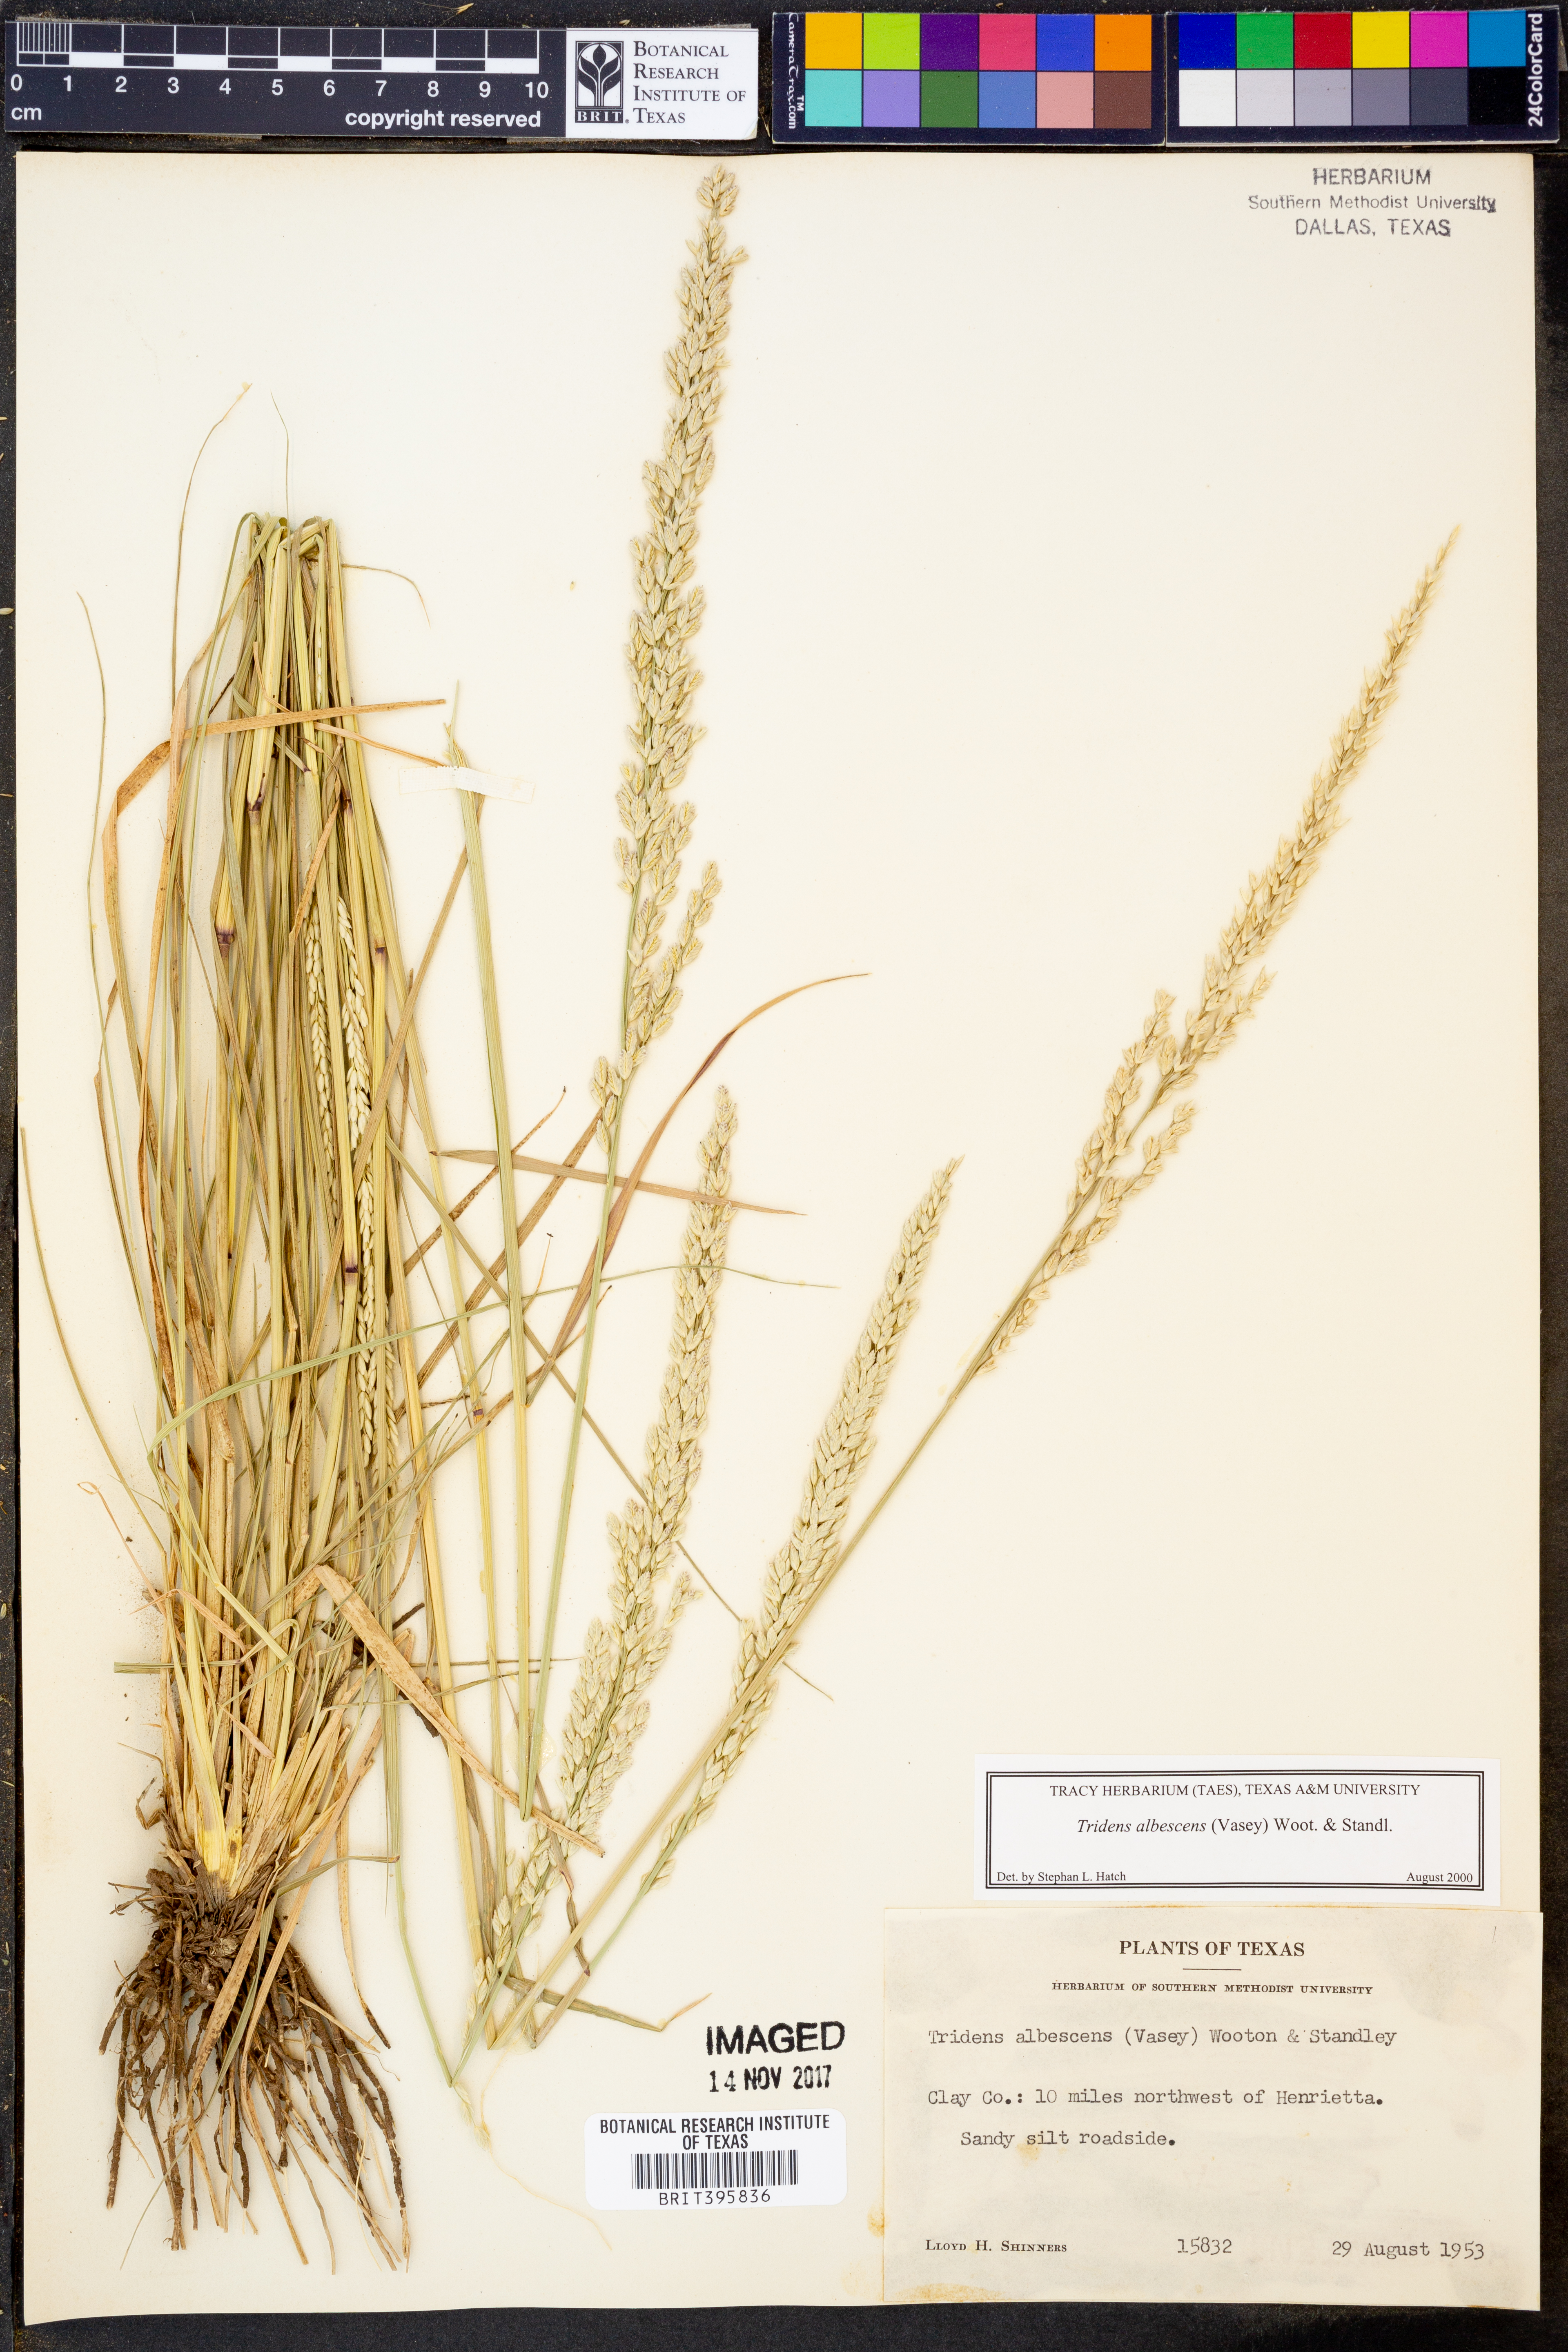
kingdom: Plantae
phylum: Tracheophyta
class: Liliopsida
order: Poales
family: Poaceae
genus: Tridens
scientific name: Tridens albescens
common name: White tridens
